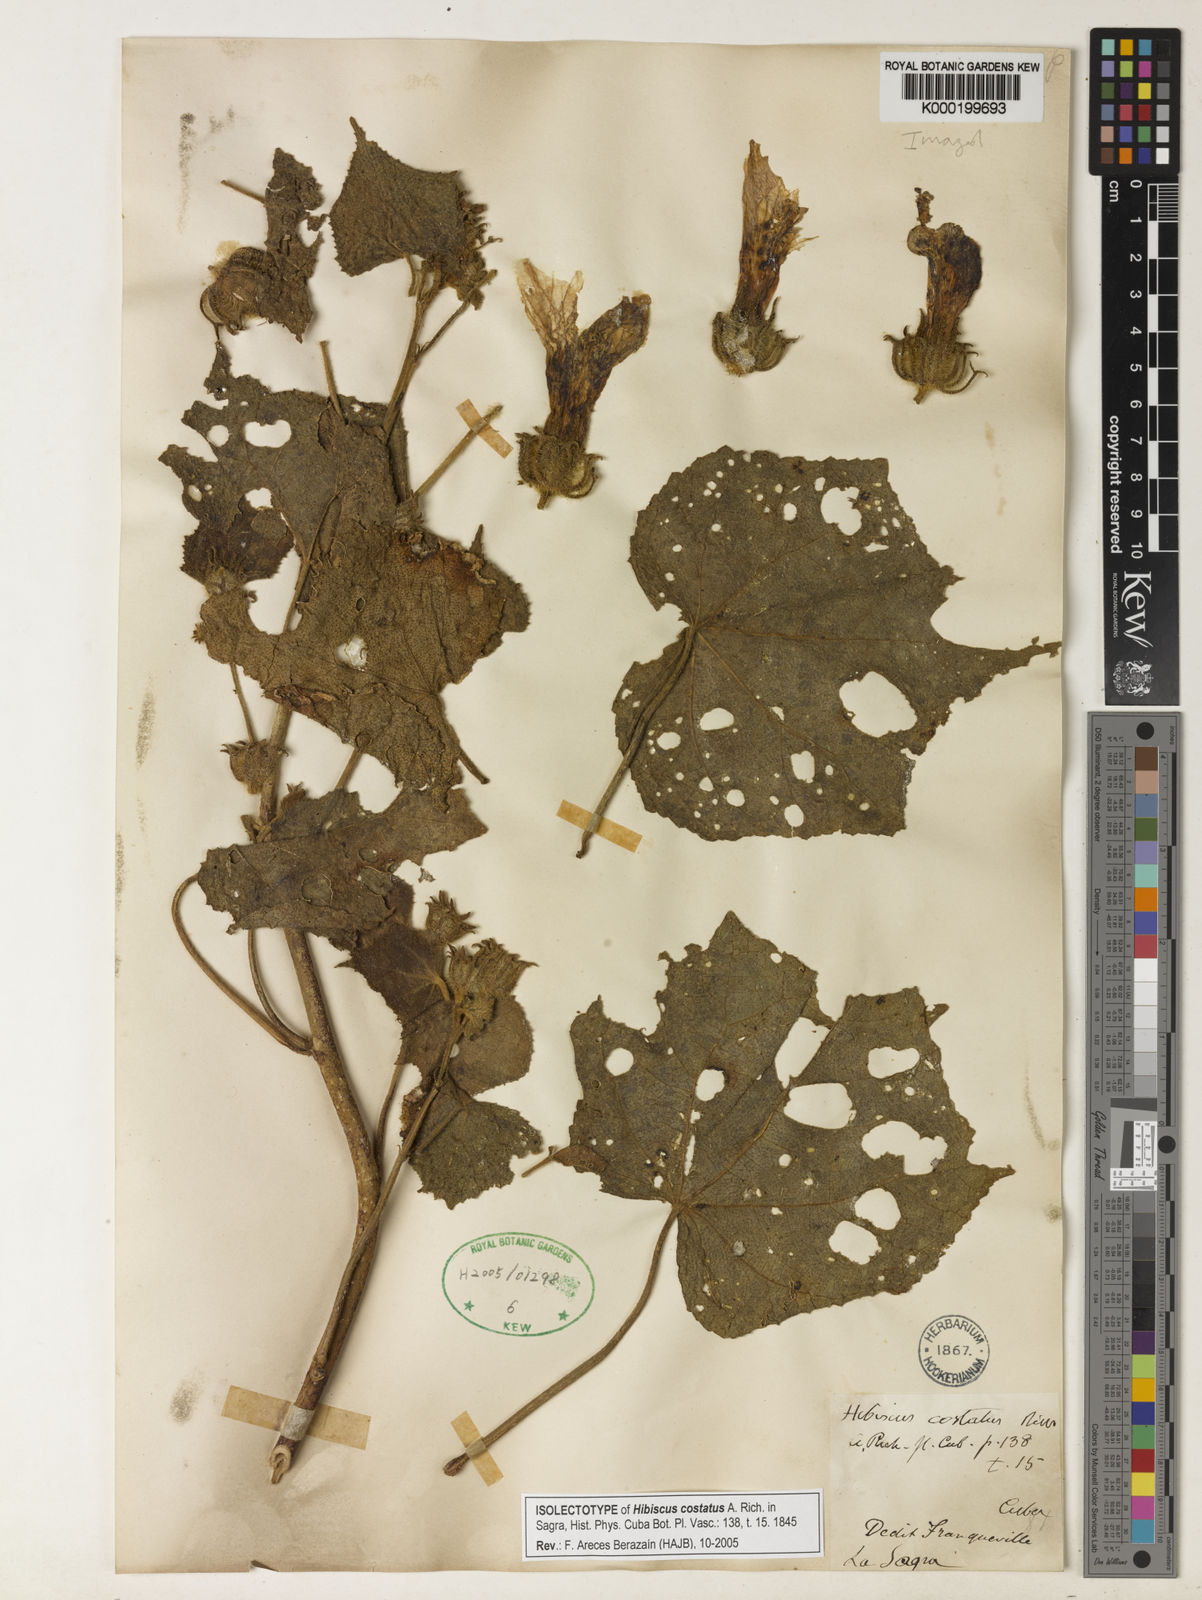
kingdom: Plantae
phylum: Tracheophyta
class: Magnoliopsida
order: Malvales
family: Malvaceae
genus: Hibiscus
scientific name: Hibiscus costatus
